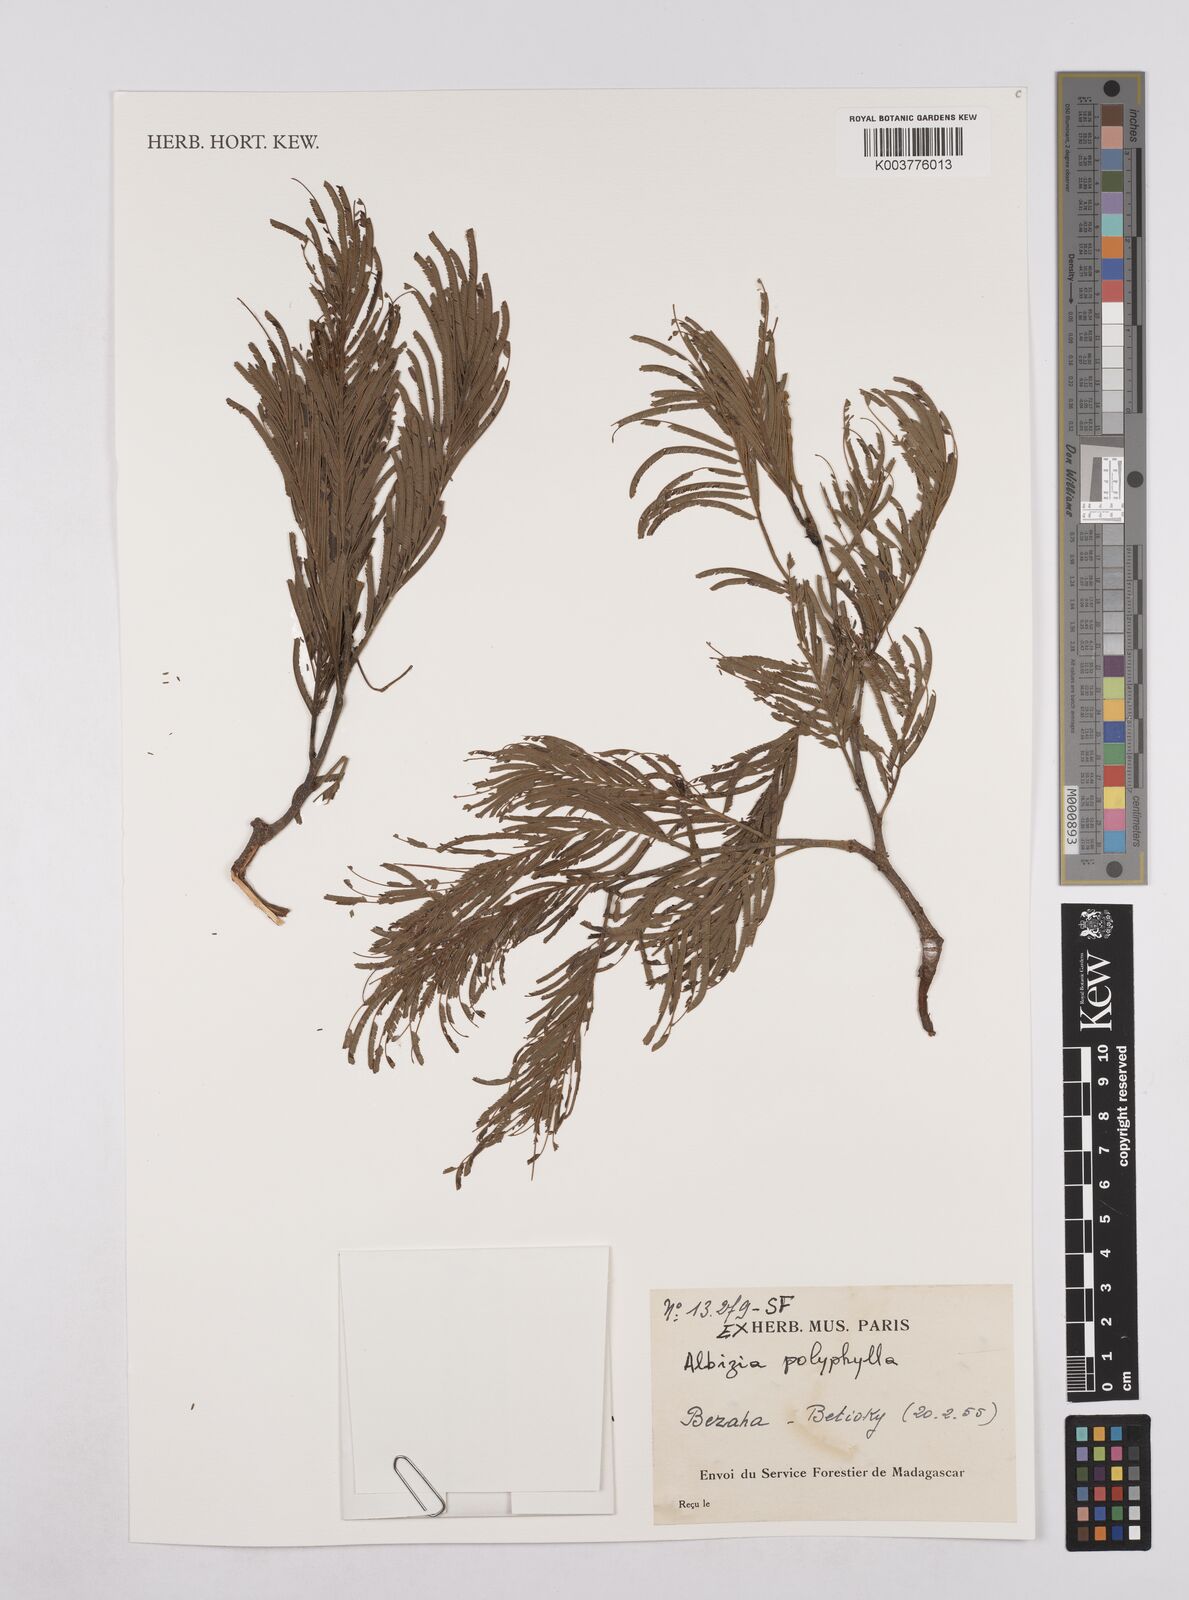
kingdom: Plantae
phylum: Tracheophyta
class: Magnoliopsida
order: Fabales
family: Fabaceae
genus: Albizia
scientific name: Albizia polyphylla
